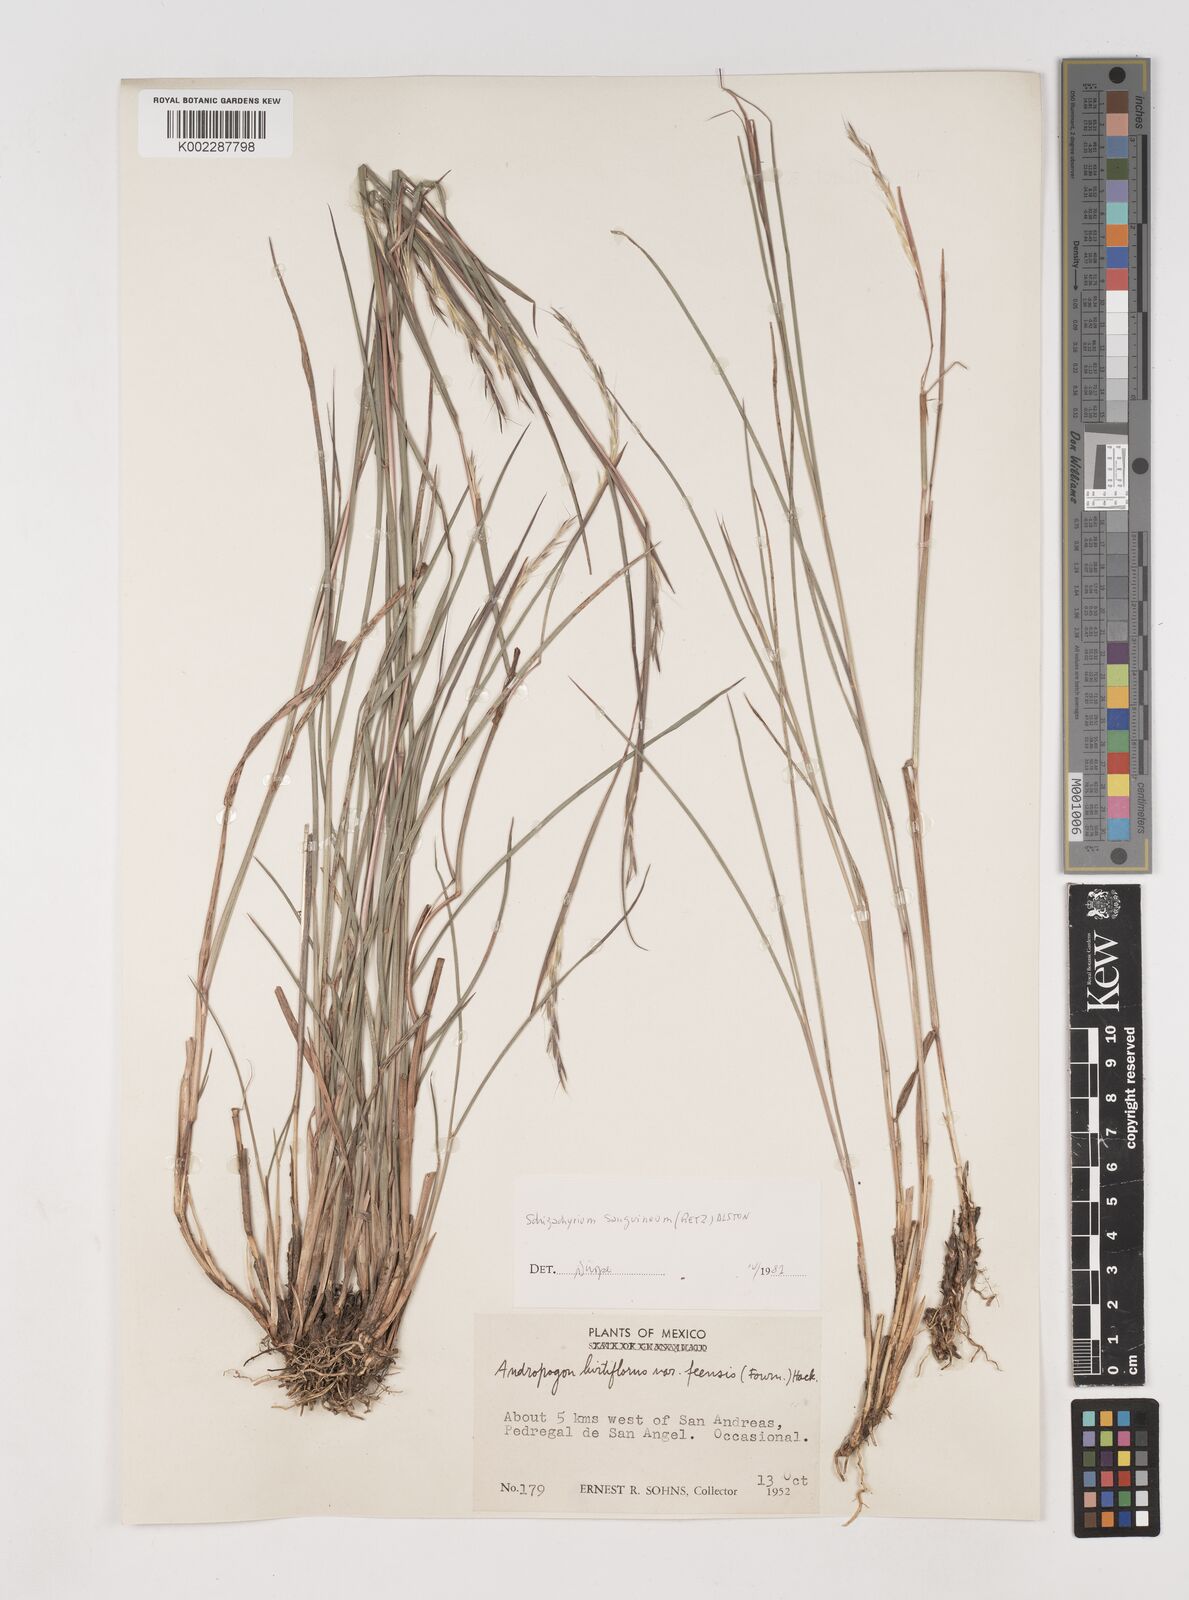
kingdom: Plantae
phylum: Tracheophyta
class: Liliopsida
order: Poales
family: Poaceae
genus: Schizachyrium
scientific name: Schizachyrium sanguineum
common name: Crimson bluestem
